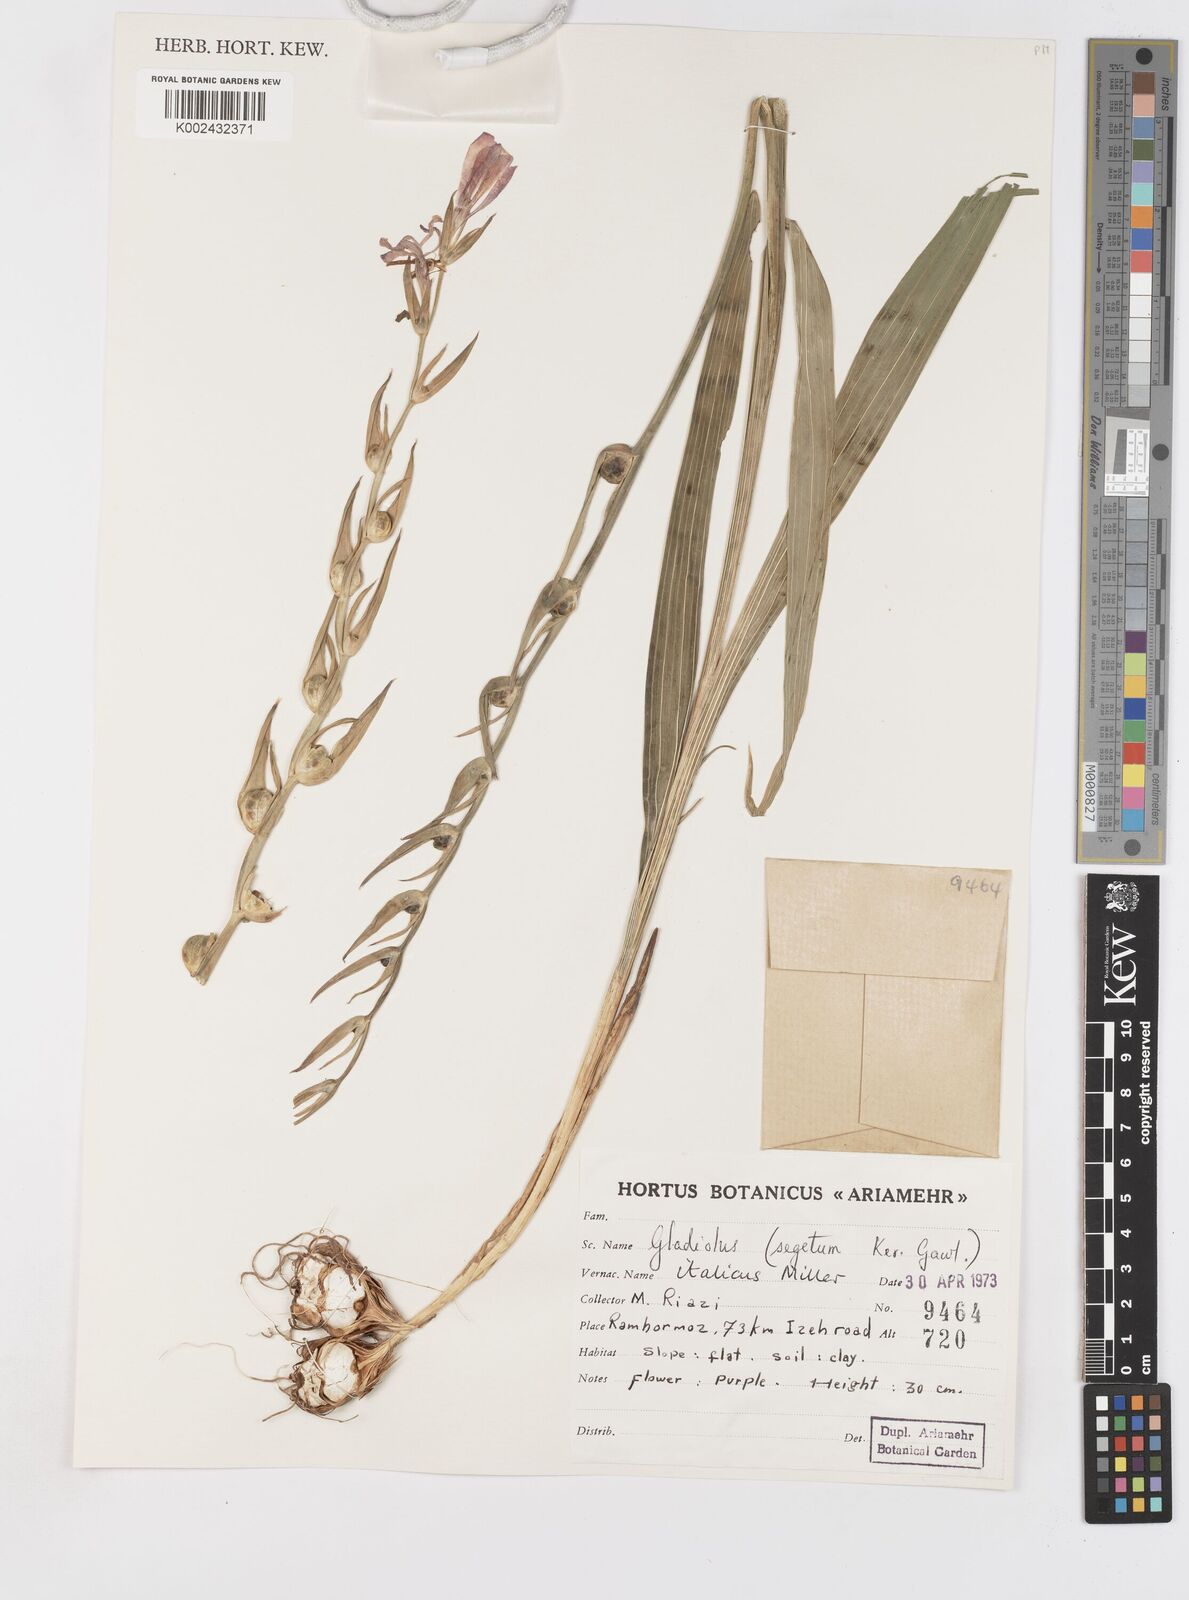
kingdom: Plantae
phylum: Tracheophyta
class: Liliopsida
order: Asparagales
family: Iridaceae
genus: Gladiolus
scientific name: Gladiolus italicus
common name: Field gladiolus
